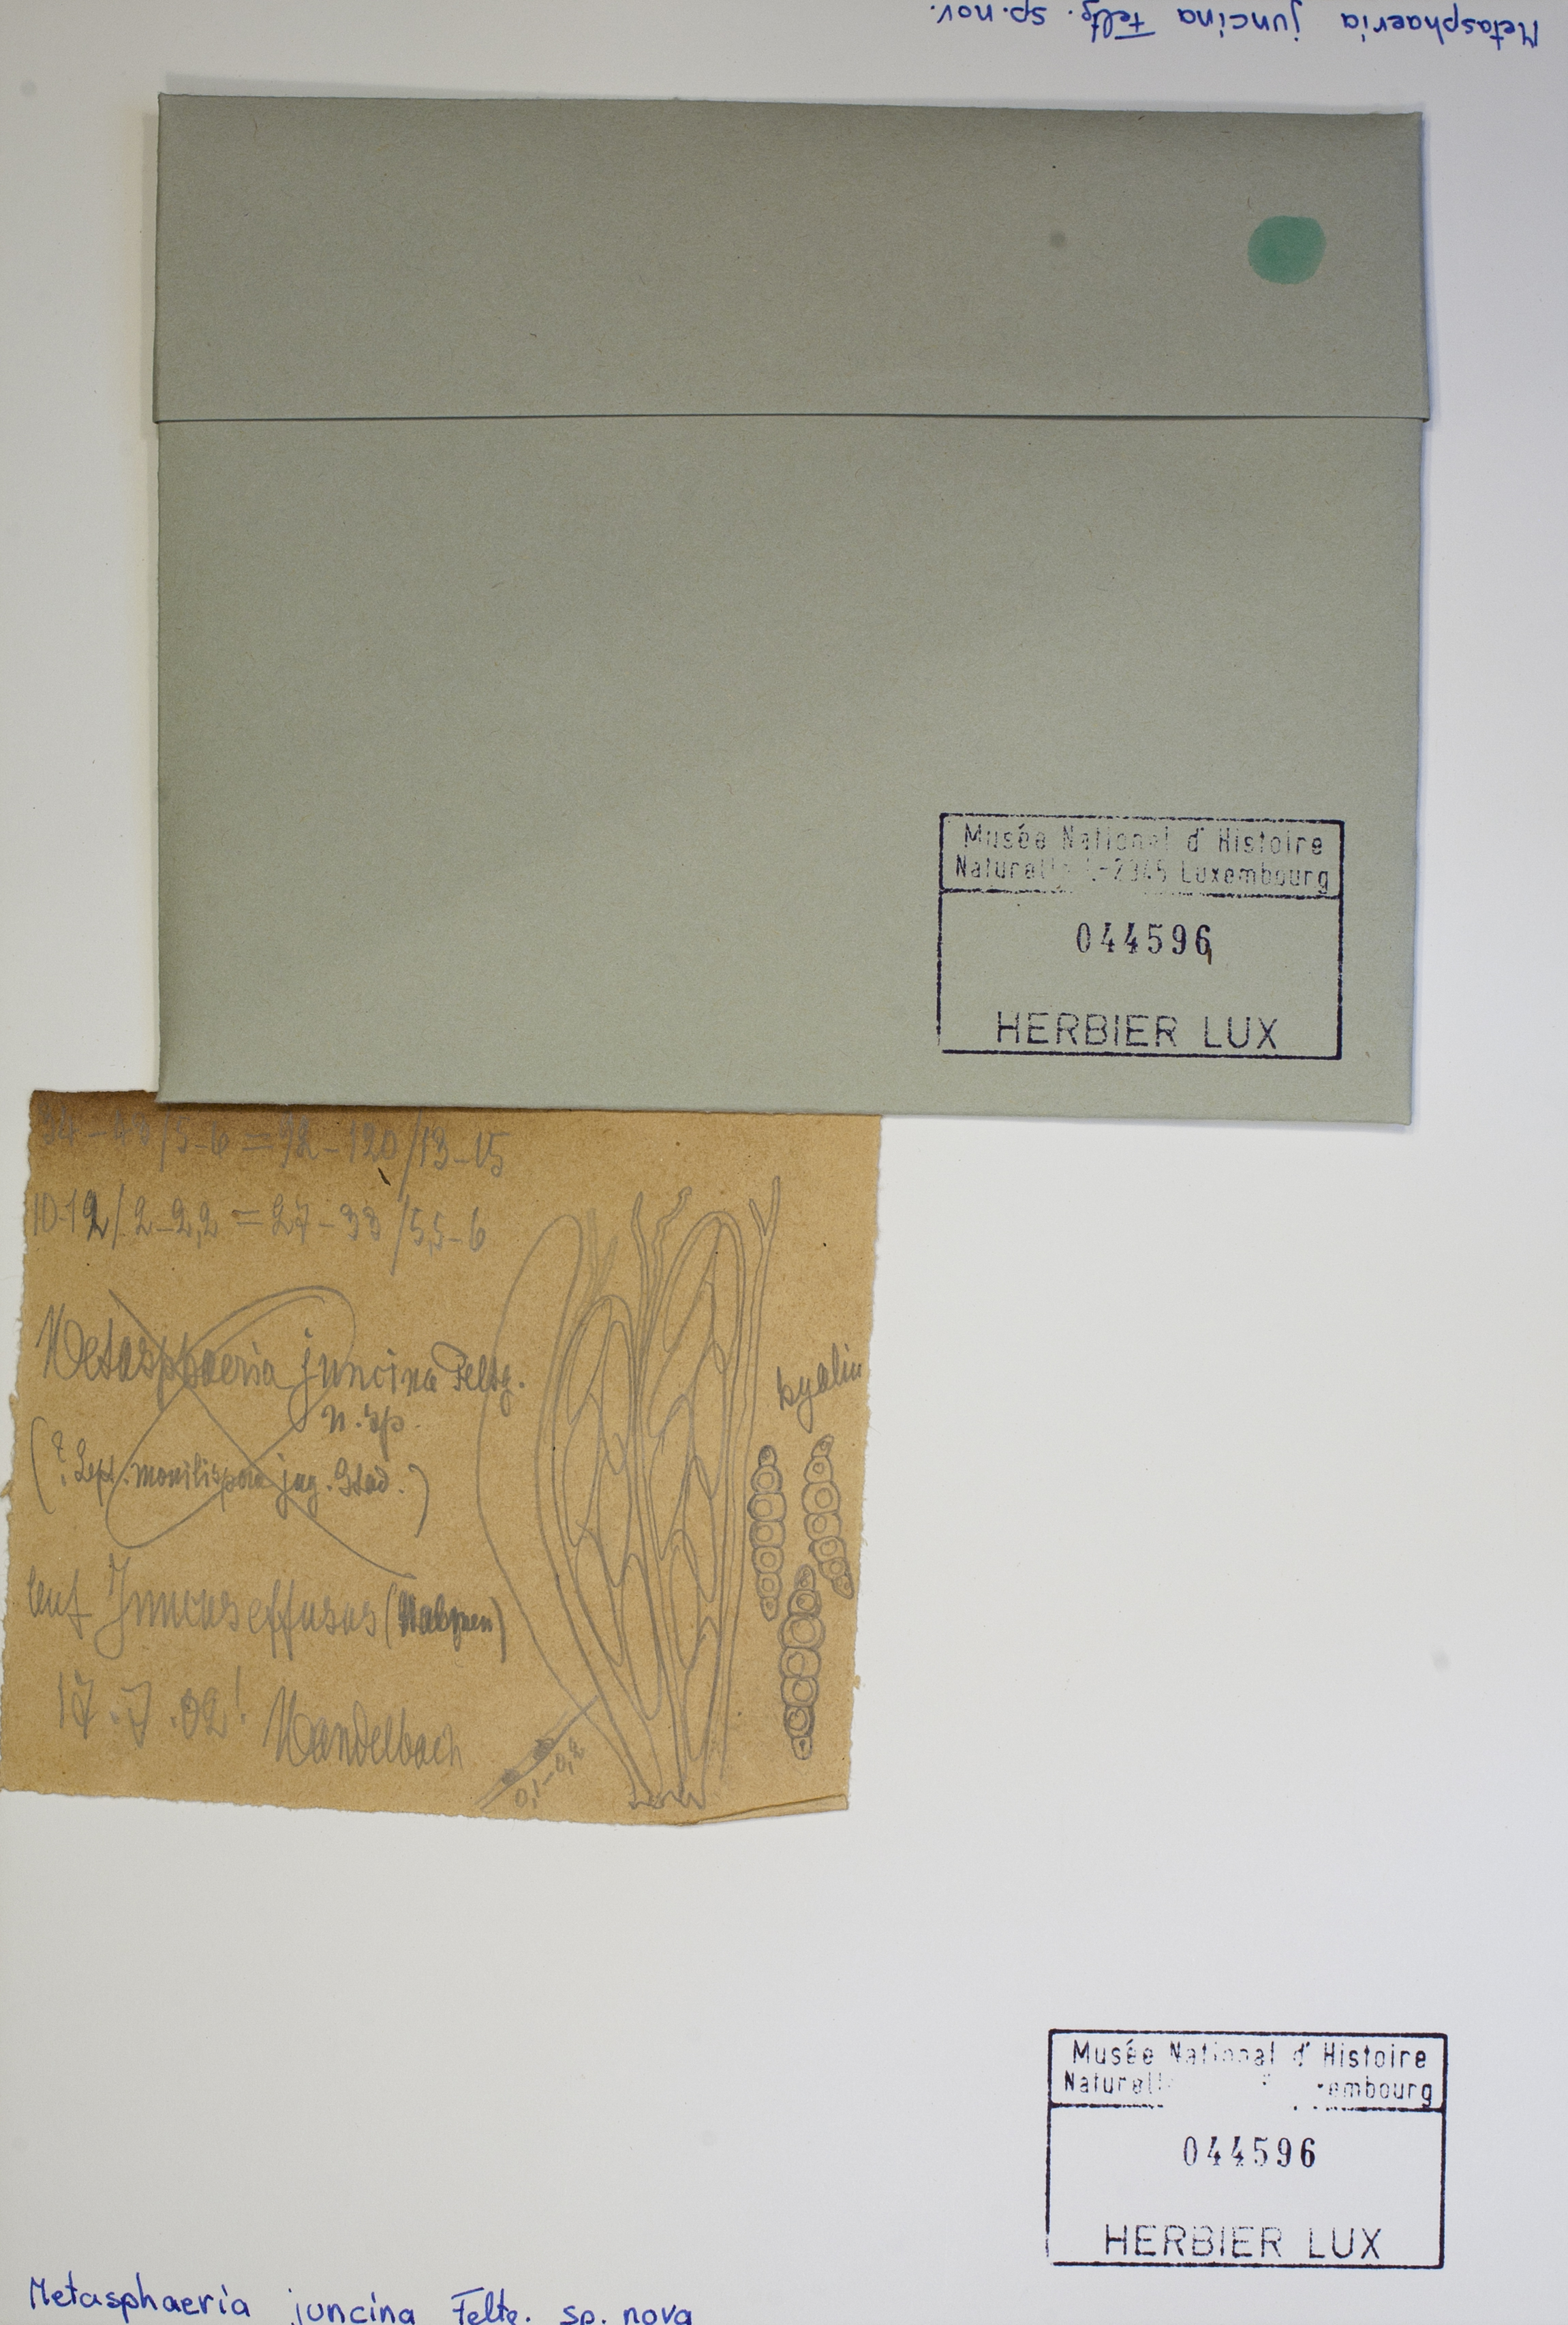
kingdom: Fungi
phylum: Ascomycota
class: Dothideomycetes
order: Dothideales
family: Saccotheciaceae
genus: Metasphaeria
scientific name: Metasphaeria junci
